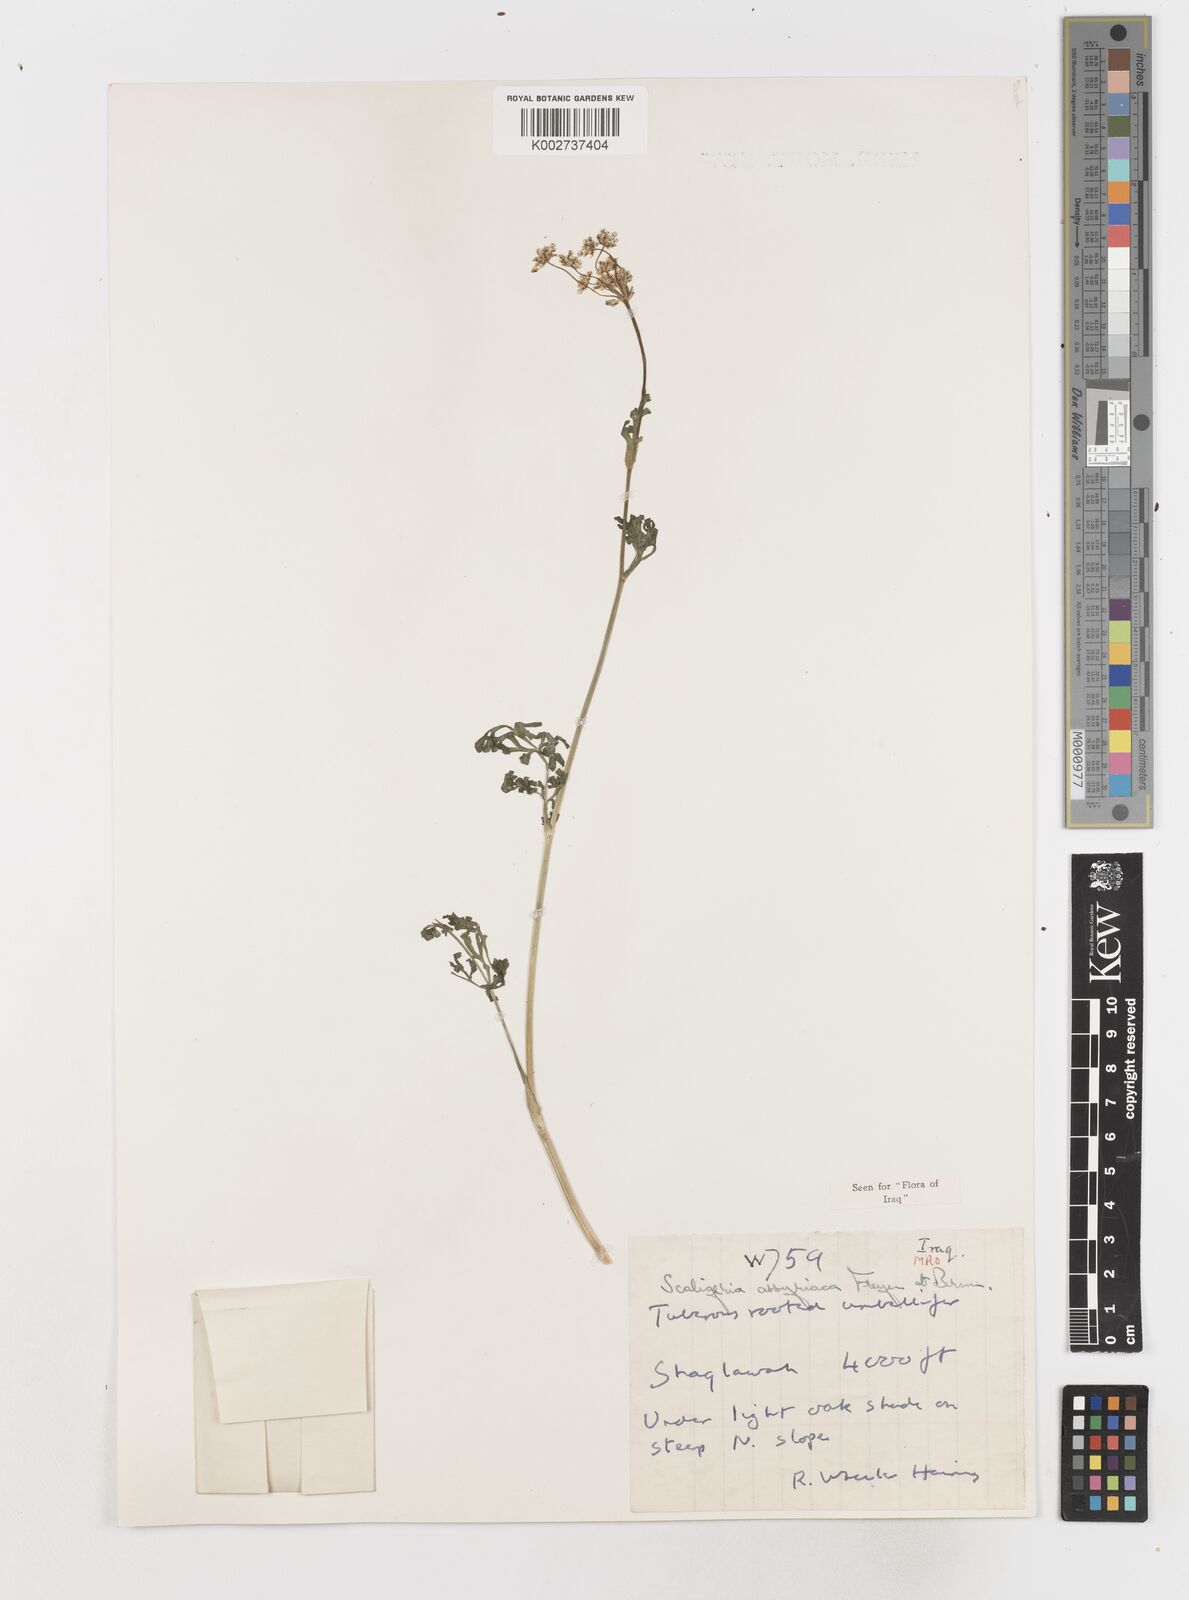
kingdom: Plantae
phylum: Tracheophyta
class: Magnoliopsida
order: Apiales
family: Apiaceae
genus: Korshinskia
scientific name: Korshinskia assyriaca
